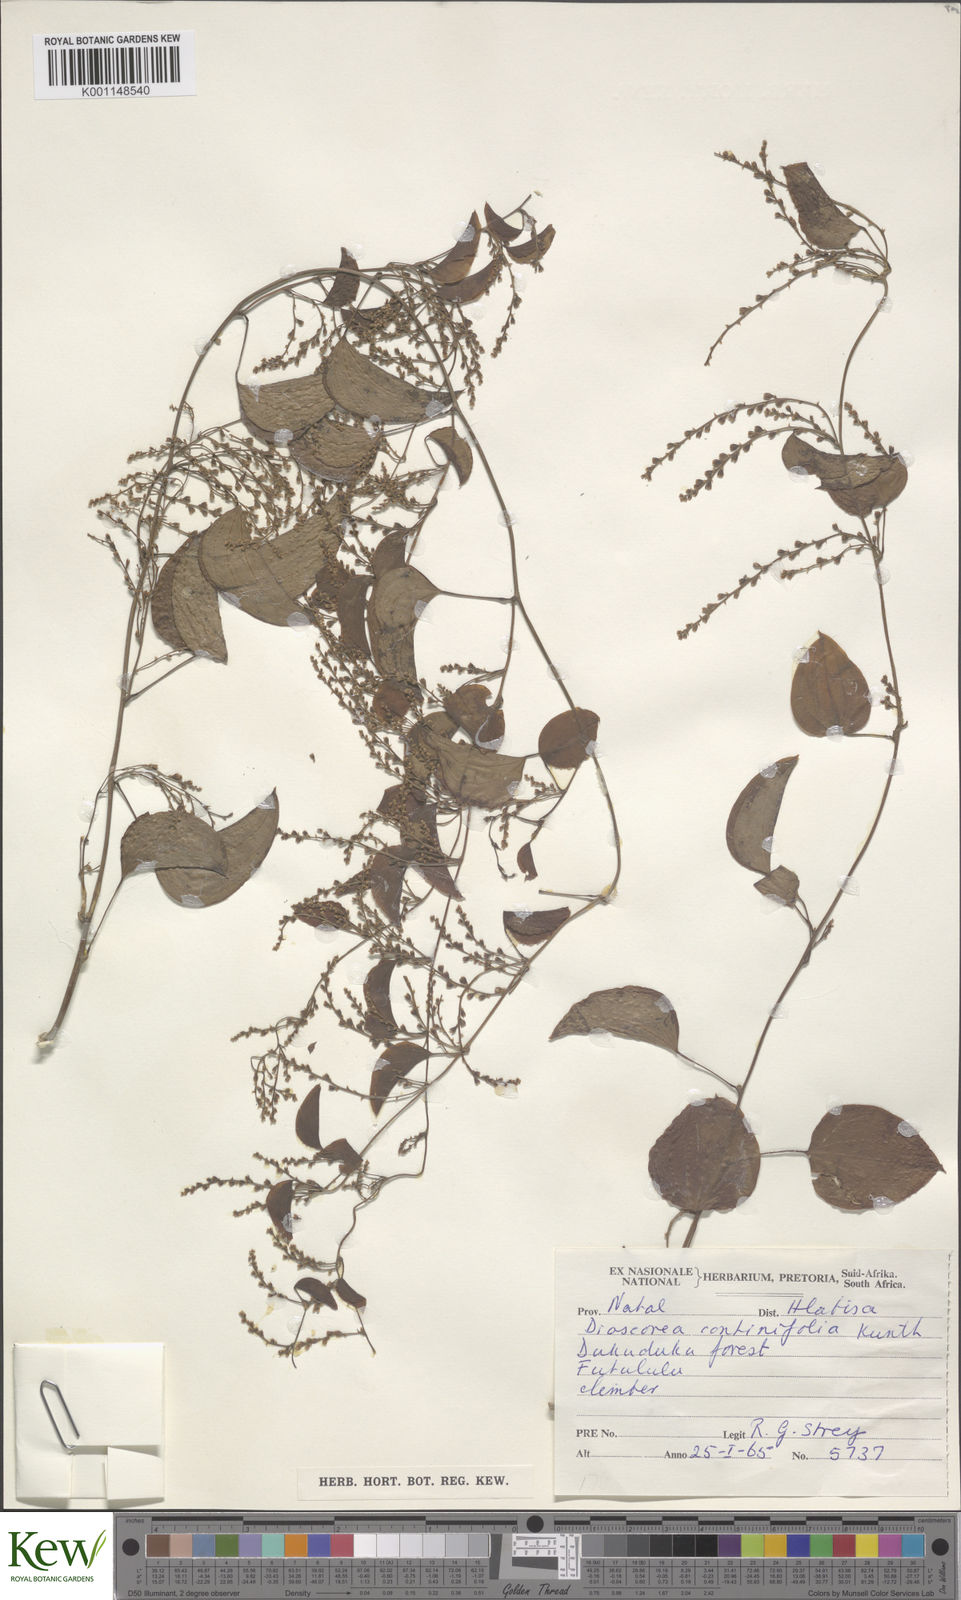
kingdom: Plantae
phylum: Tracheophyta
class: Liliopsida
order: Dioscoreales
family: Dioscoreaceae
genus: Dioscorea
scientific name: Dioscorea cotinifolia
